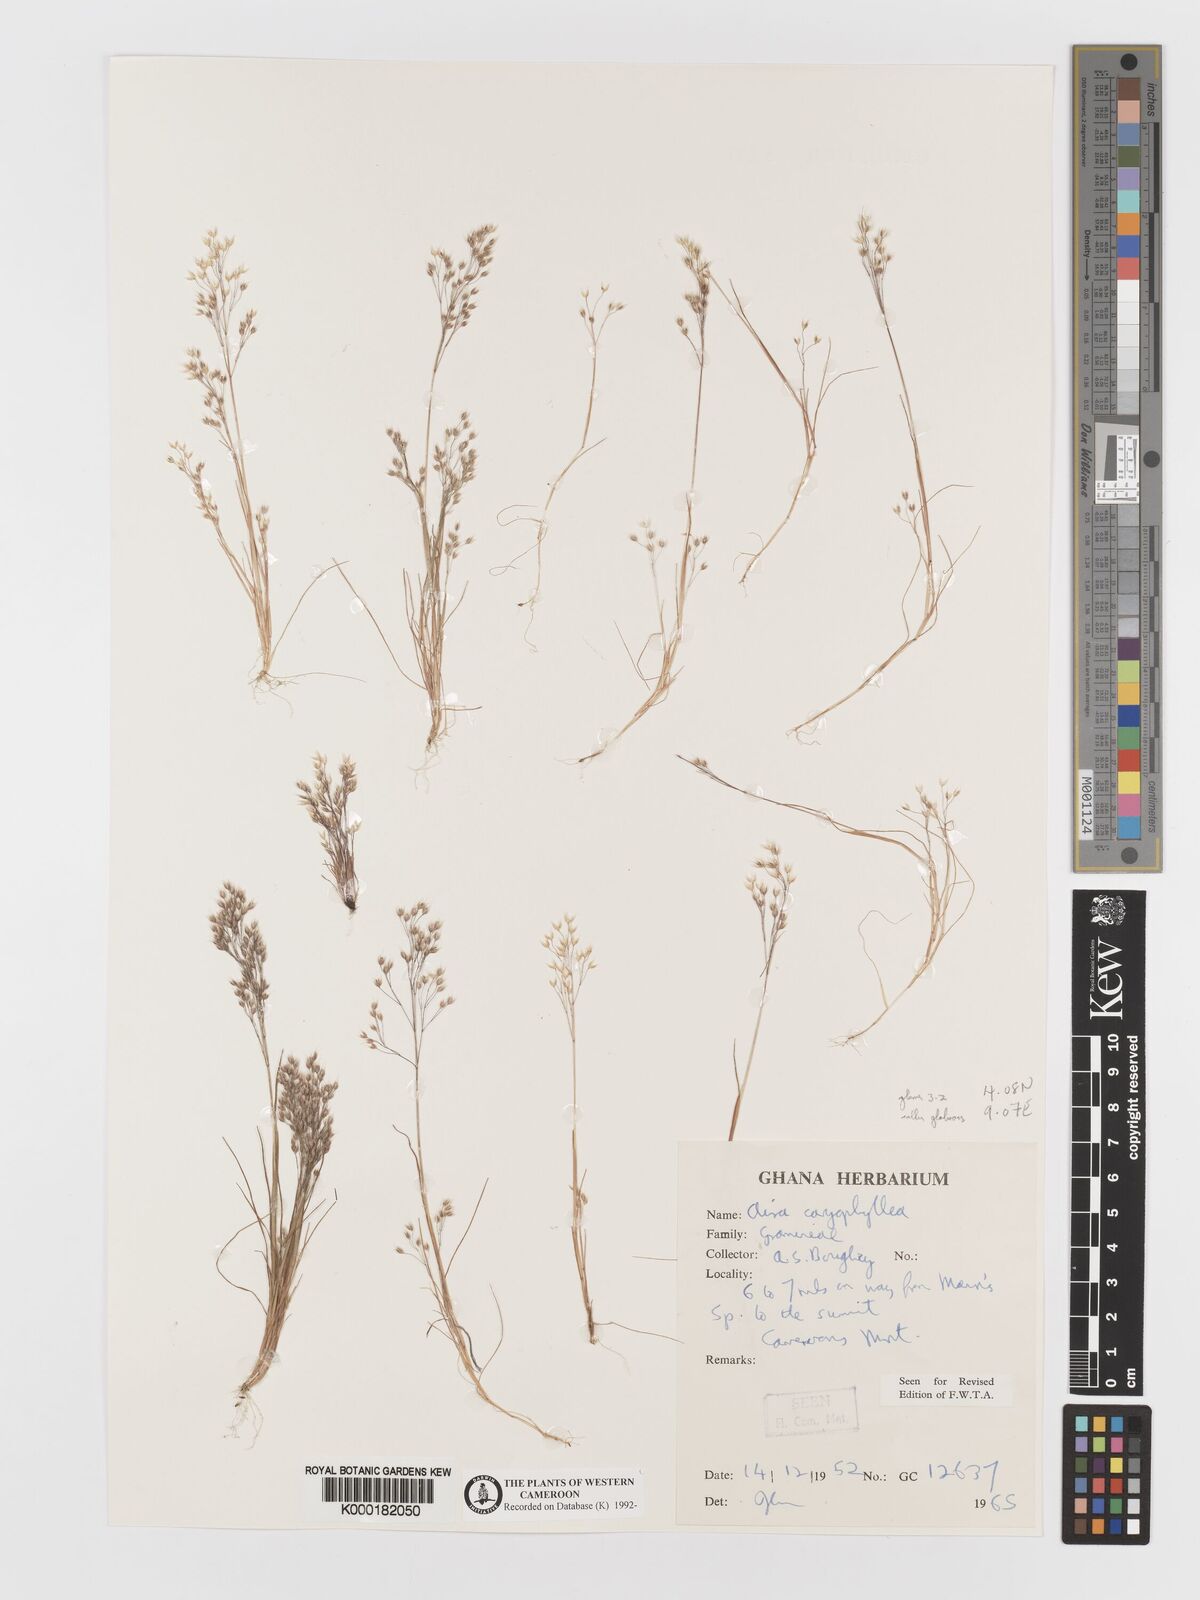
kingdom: Plantae
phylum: Tracheophyta
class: Liliopsida
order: Poales
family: Poaceae
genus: Aira
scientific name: Aira caryophyllea
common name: Silver hairgrass
